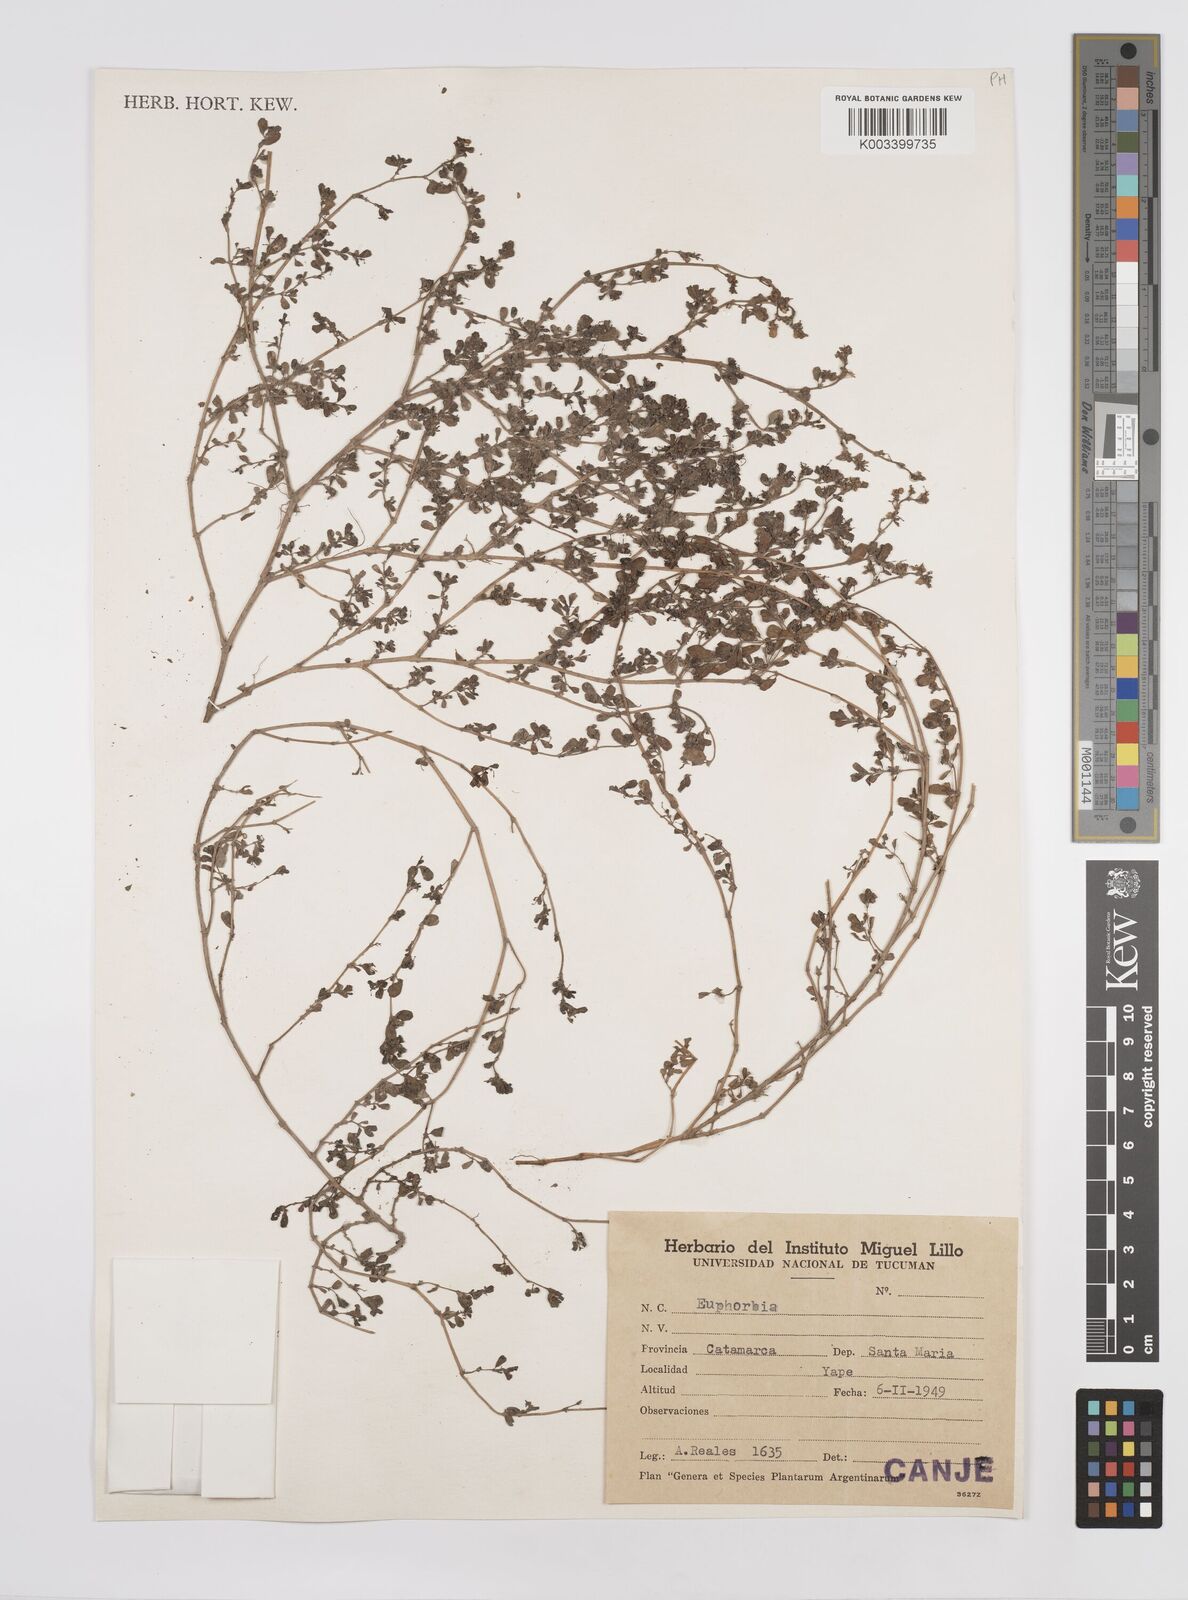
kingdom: Plantae
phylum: Tracheophyta
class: Magnoliopsida
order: Malpighiales
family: Euphorbiaceae
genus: Euphorbia
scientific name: Euphorbia
